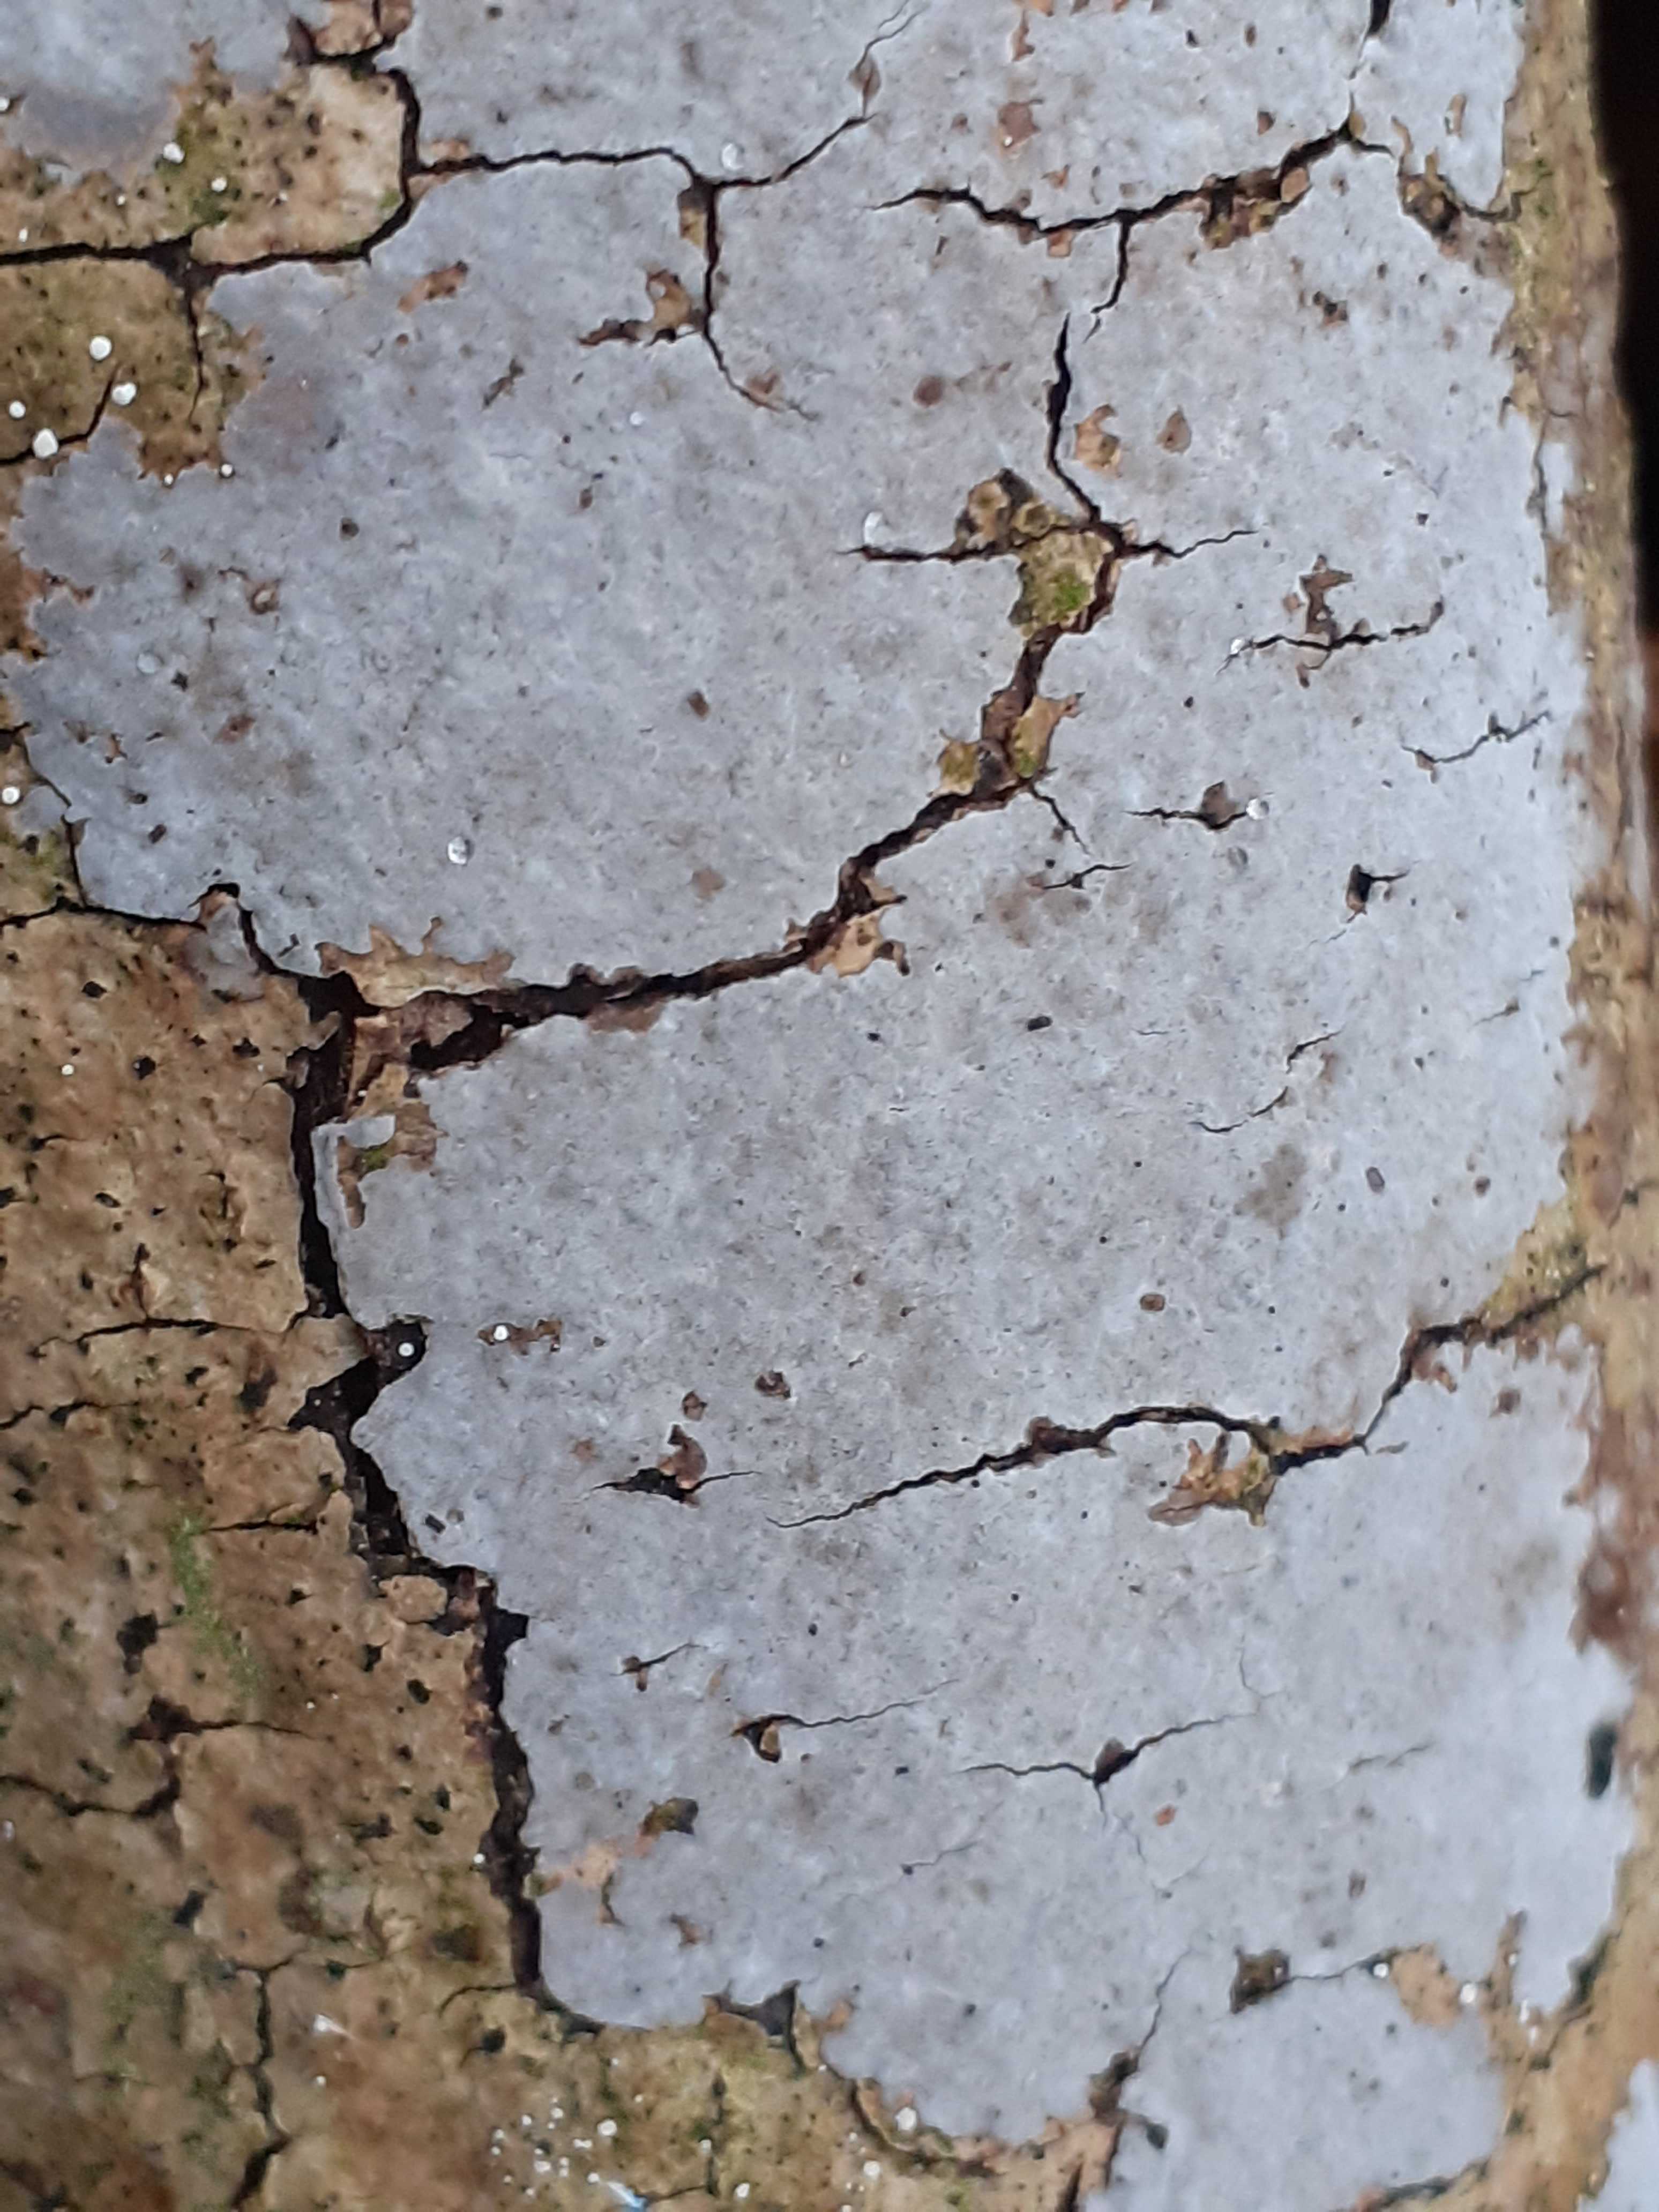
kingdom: Fungi
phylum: Basidiomycota
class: Agaricomycetes
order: Russulales
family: Peniophoraceae
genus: Peniophora
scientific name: Peniophora limitata
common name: mørkrandet voksskind
